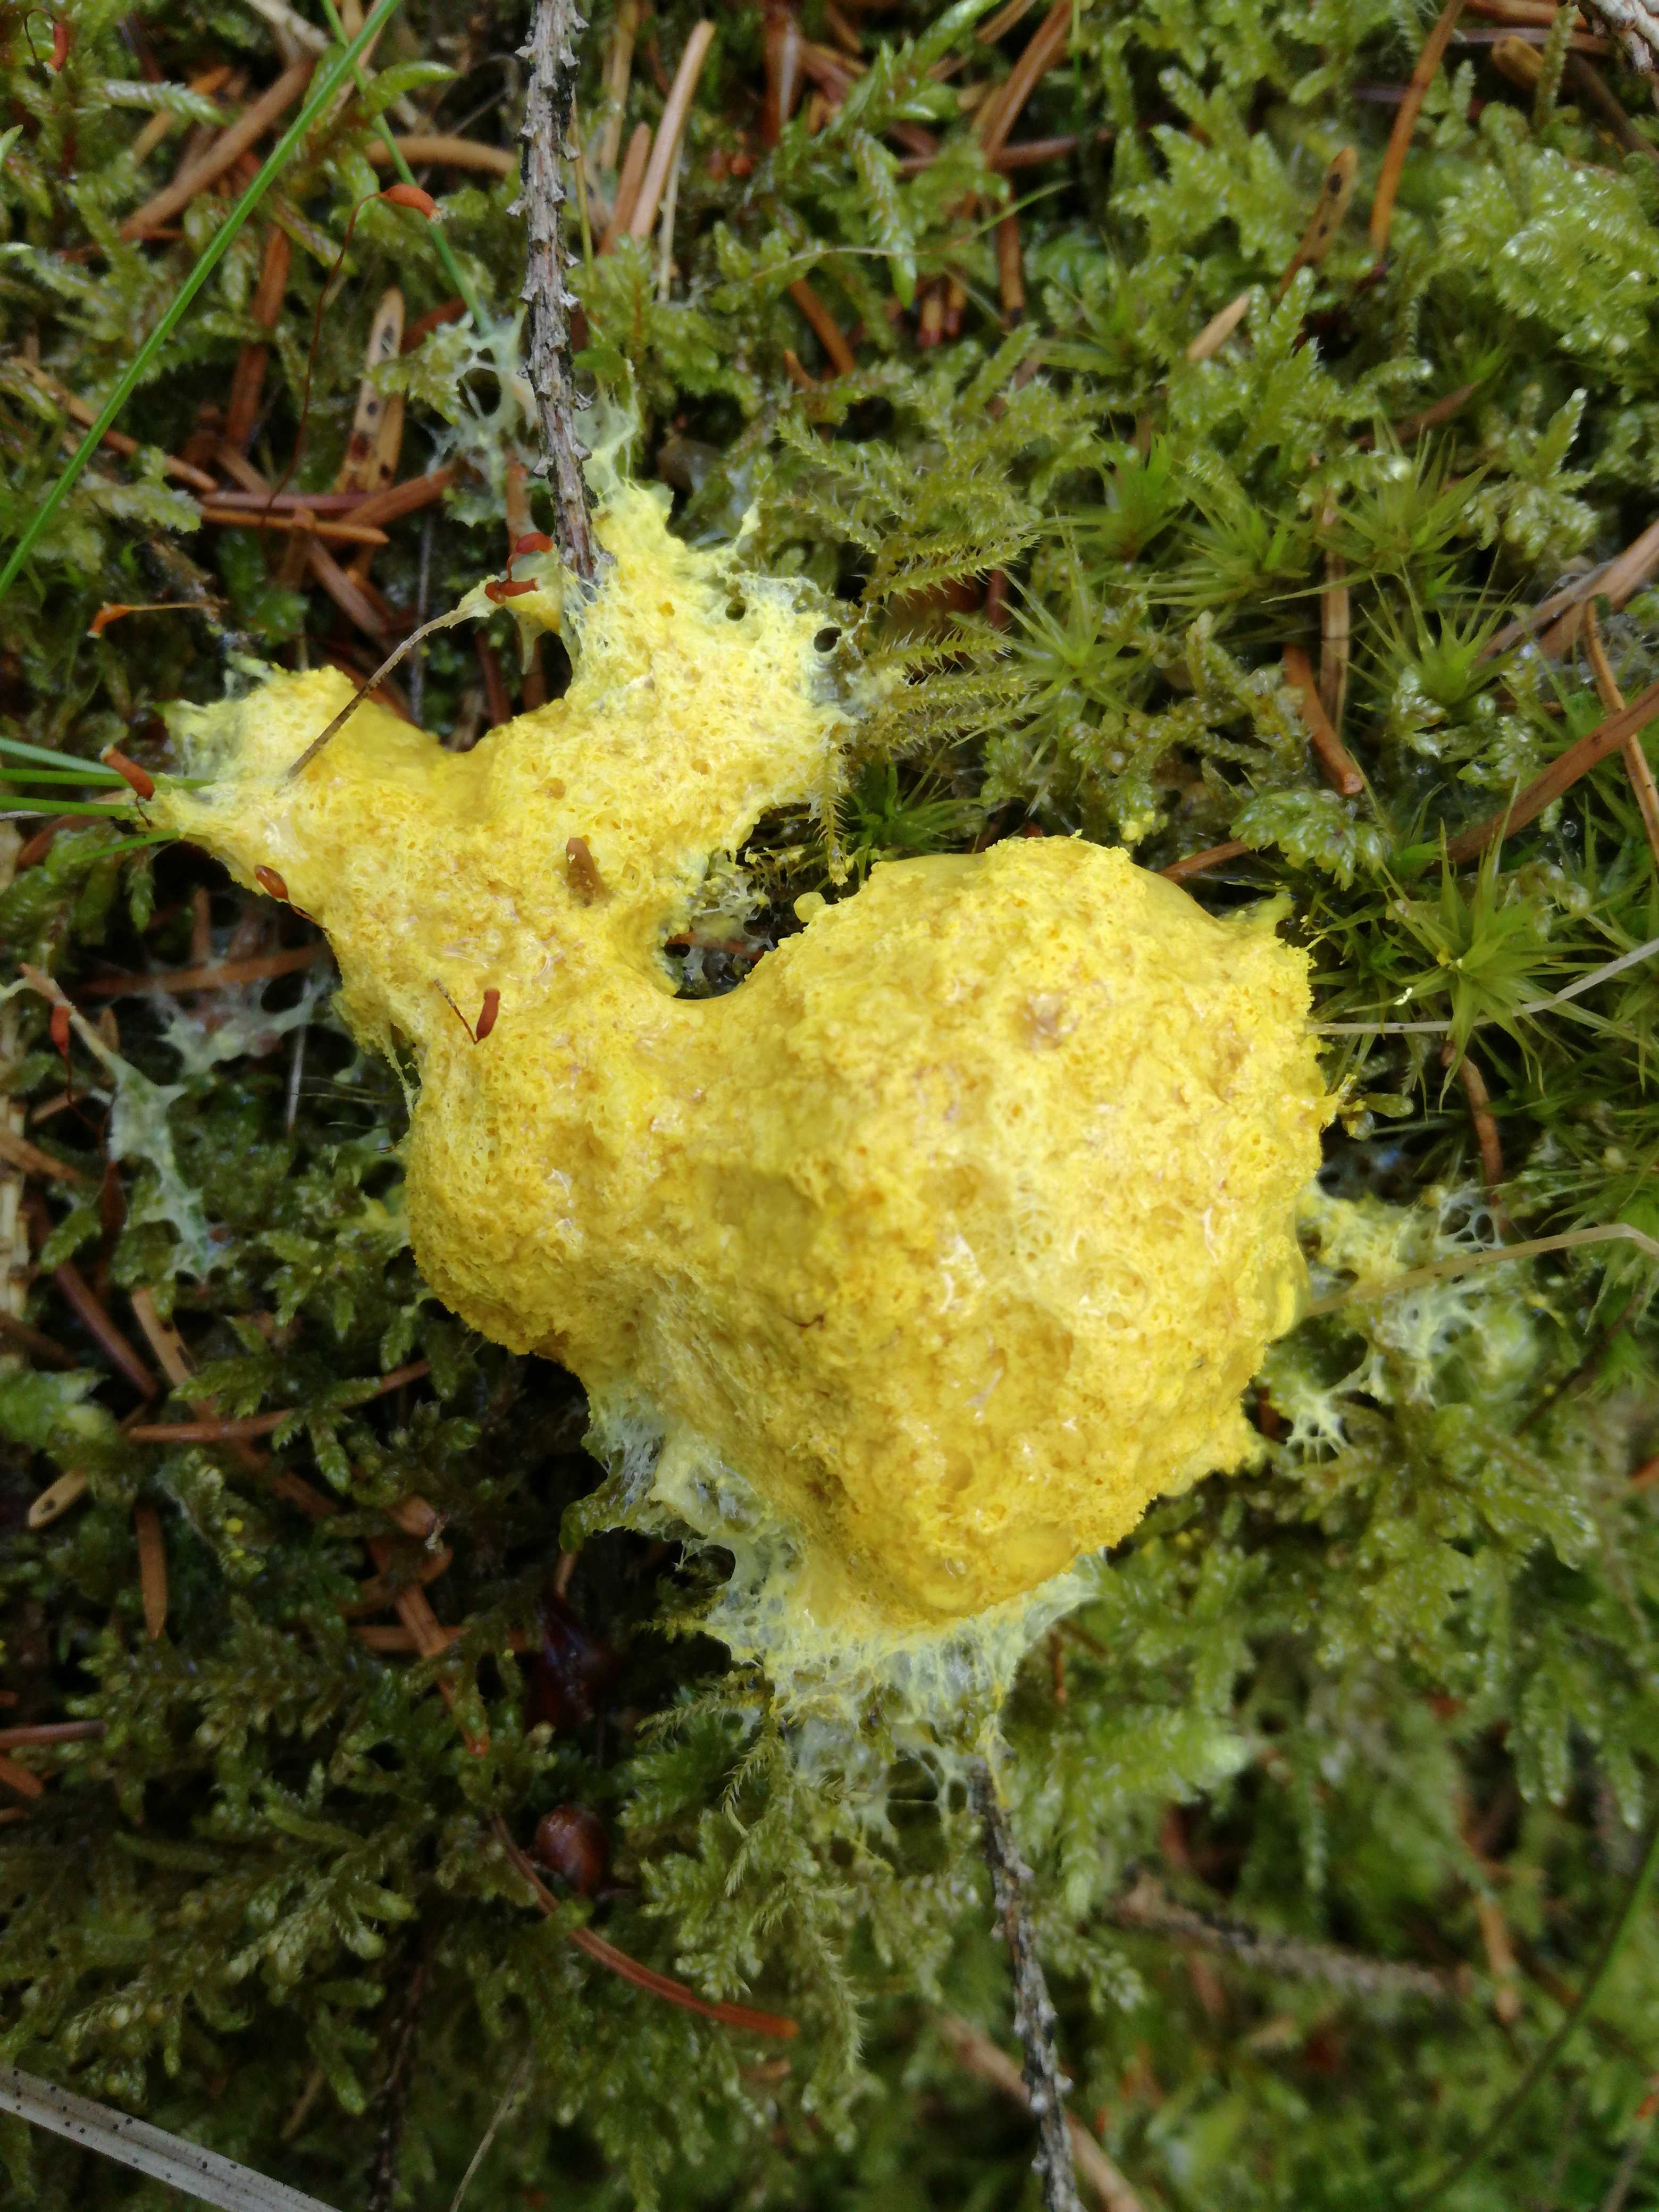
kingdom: Protozoa
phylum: Mycetozoa
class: Myxomycetes
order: Physarales
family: Physaraceae
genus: Fuligo
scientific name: Fuligo septica
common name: gul troldsmør
